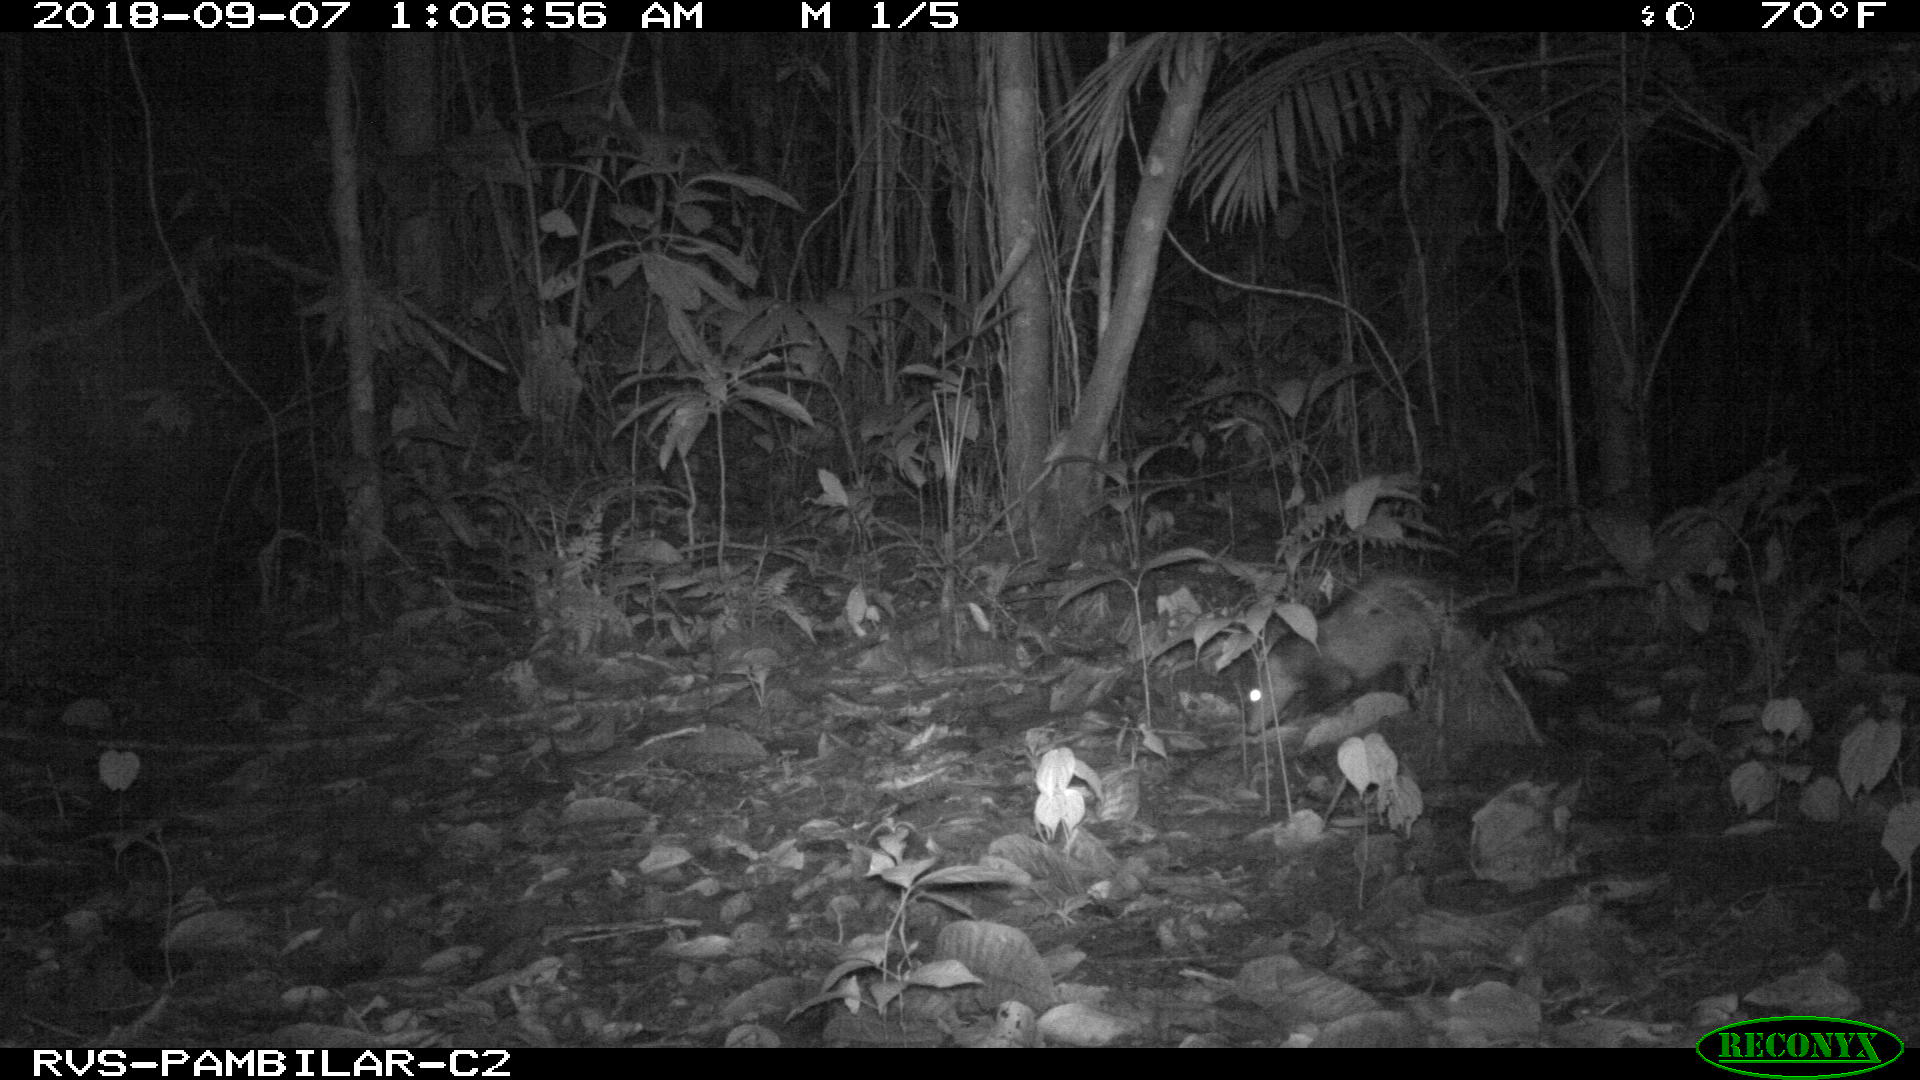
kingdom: Animalia
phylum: Chordata
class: Mammalia
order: Didelphimorphia
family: Didelphidae
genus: Didelphis
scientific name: Didelphis marsupialis
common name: Common opossum
